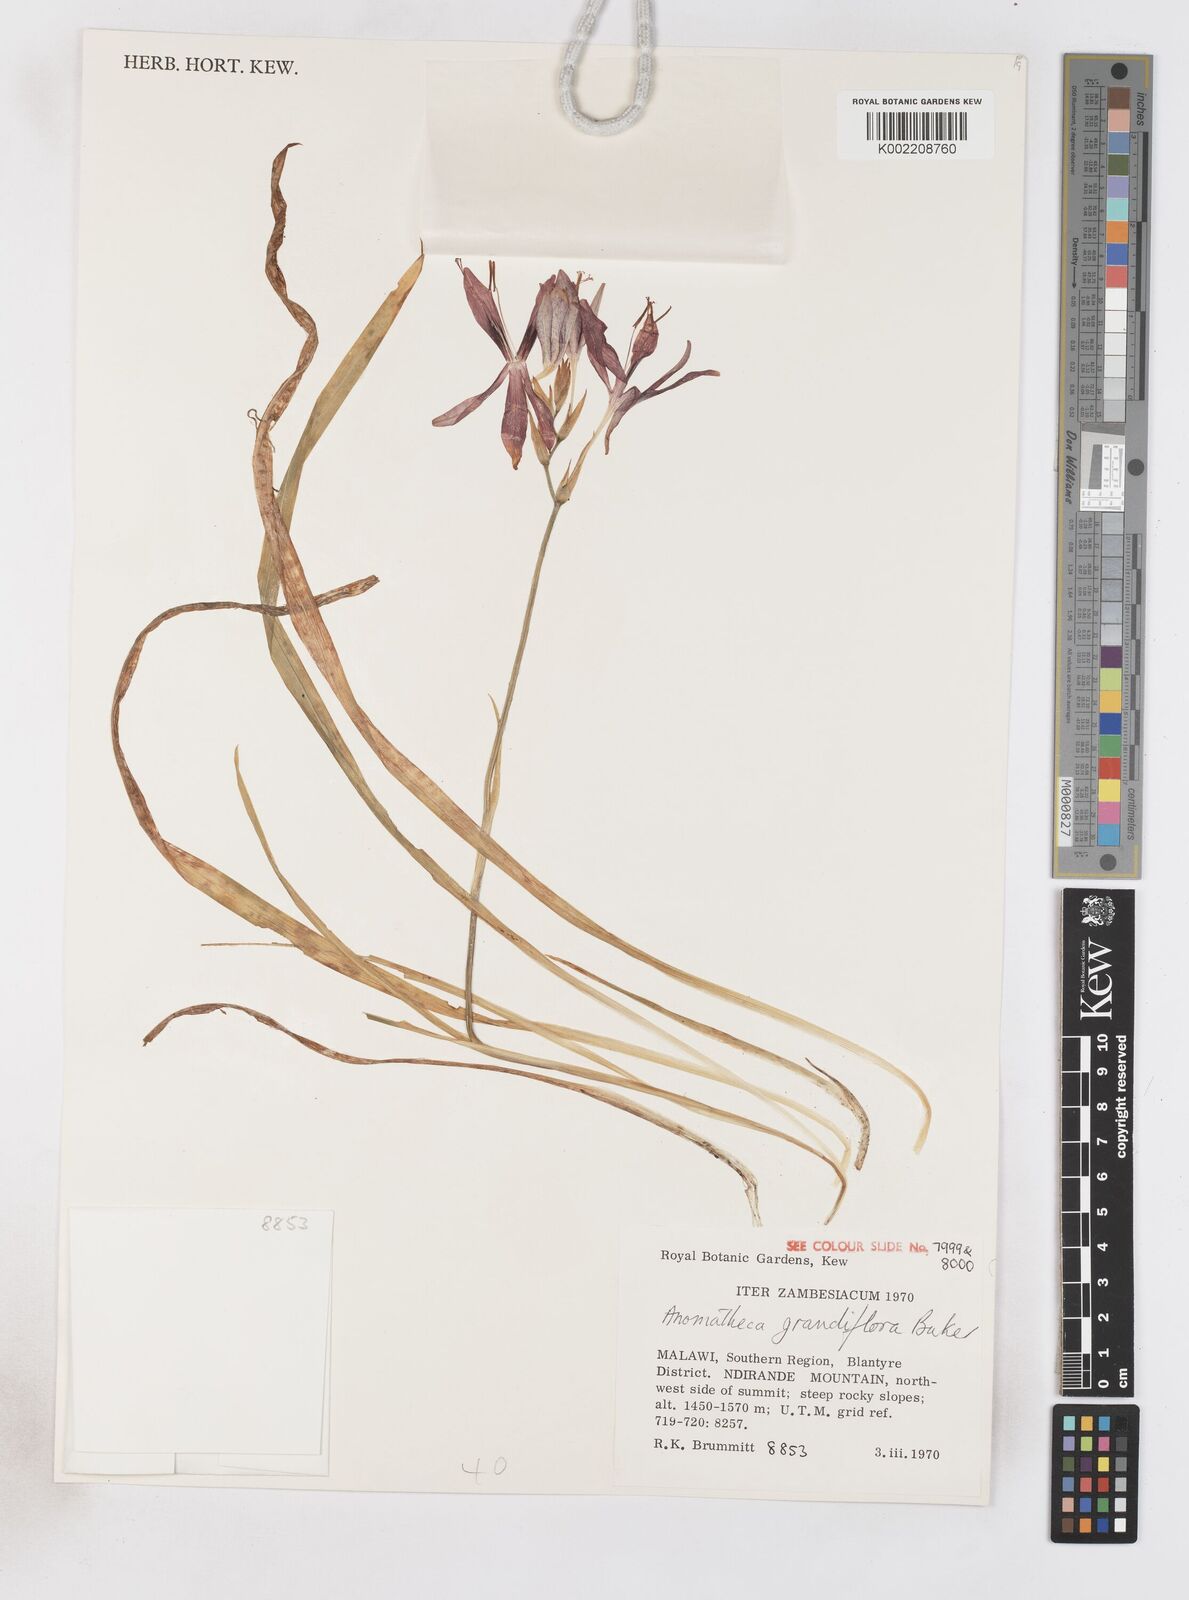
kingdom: Plantae
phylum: Tracheophyta
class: Liliopsida
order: Asparagales
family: Iridaceae
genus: Freesia
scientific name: Freesia grandiflora
